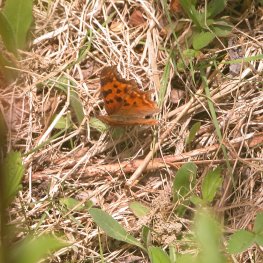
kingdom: Animalia
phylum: Arthropoda
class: Insecta
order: Lepidoptera
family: Nymphalidae
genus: Polygonia
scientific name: Polygonia satyrus
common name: Satyr Comma
